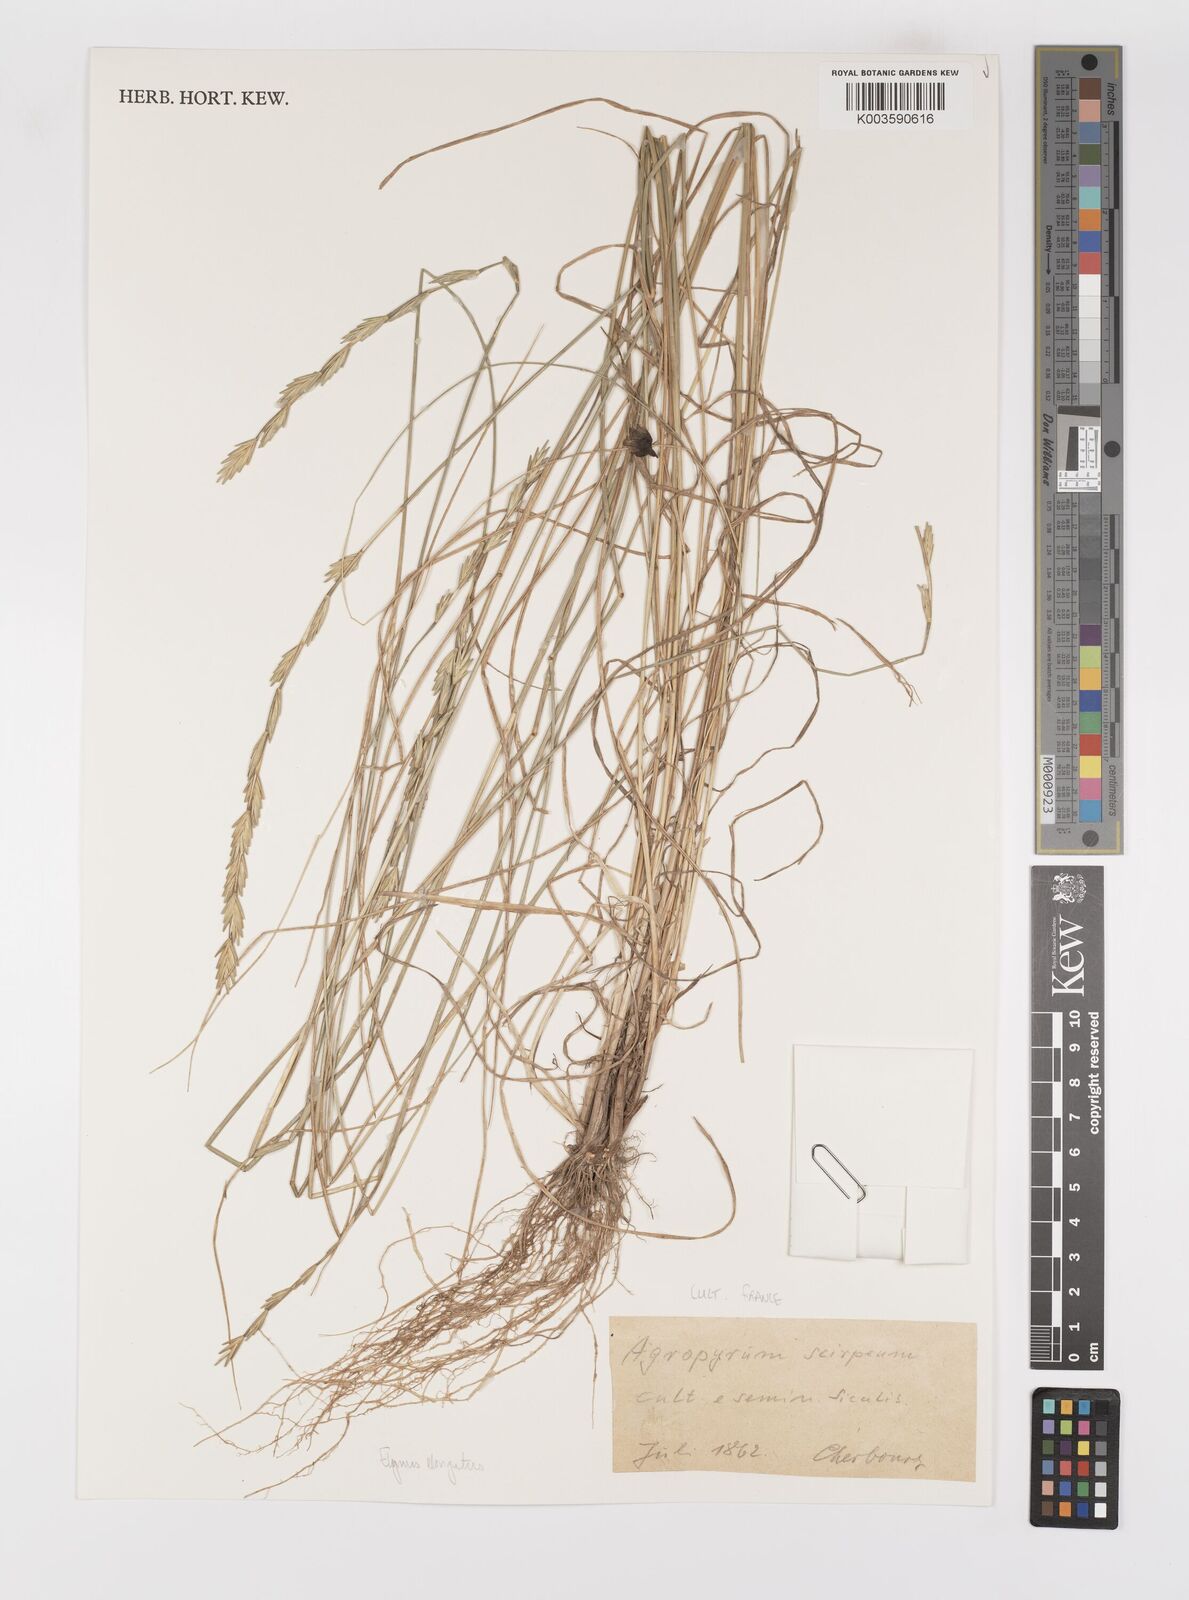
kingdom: Plantae
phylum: Tracheophyta
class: Liliopsida
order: Poales
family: Poaceae
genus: Thinopyrum
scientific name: Thinopyrum elongatum
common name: Tall wheatgrass
